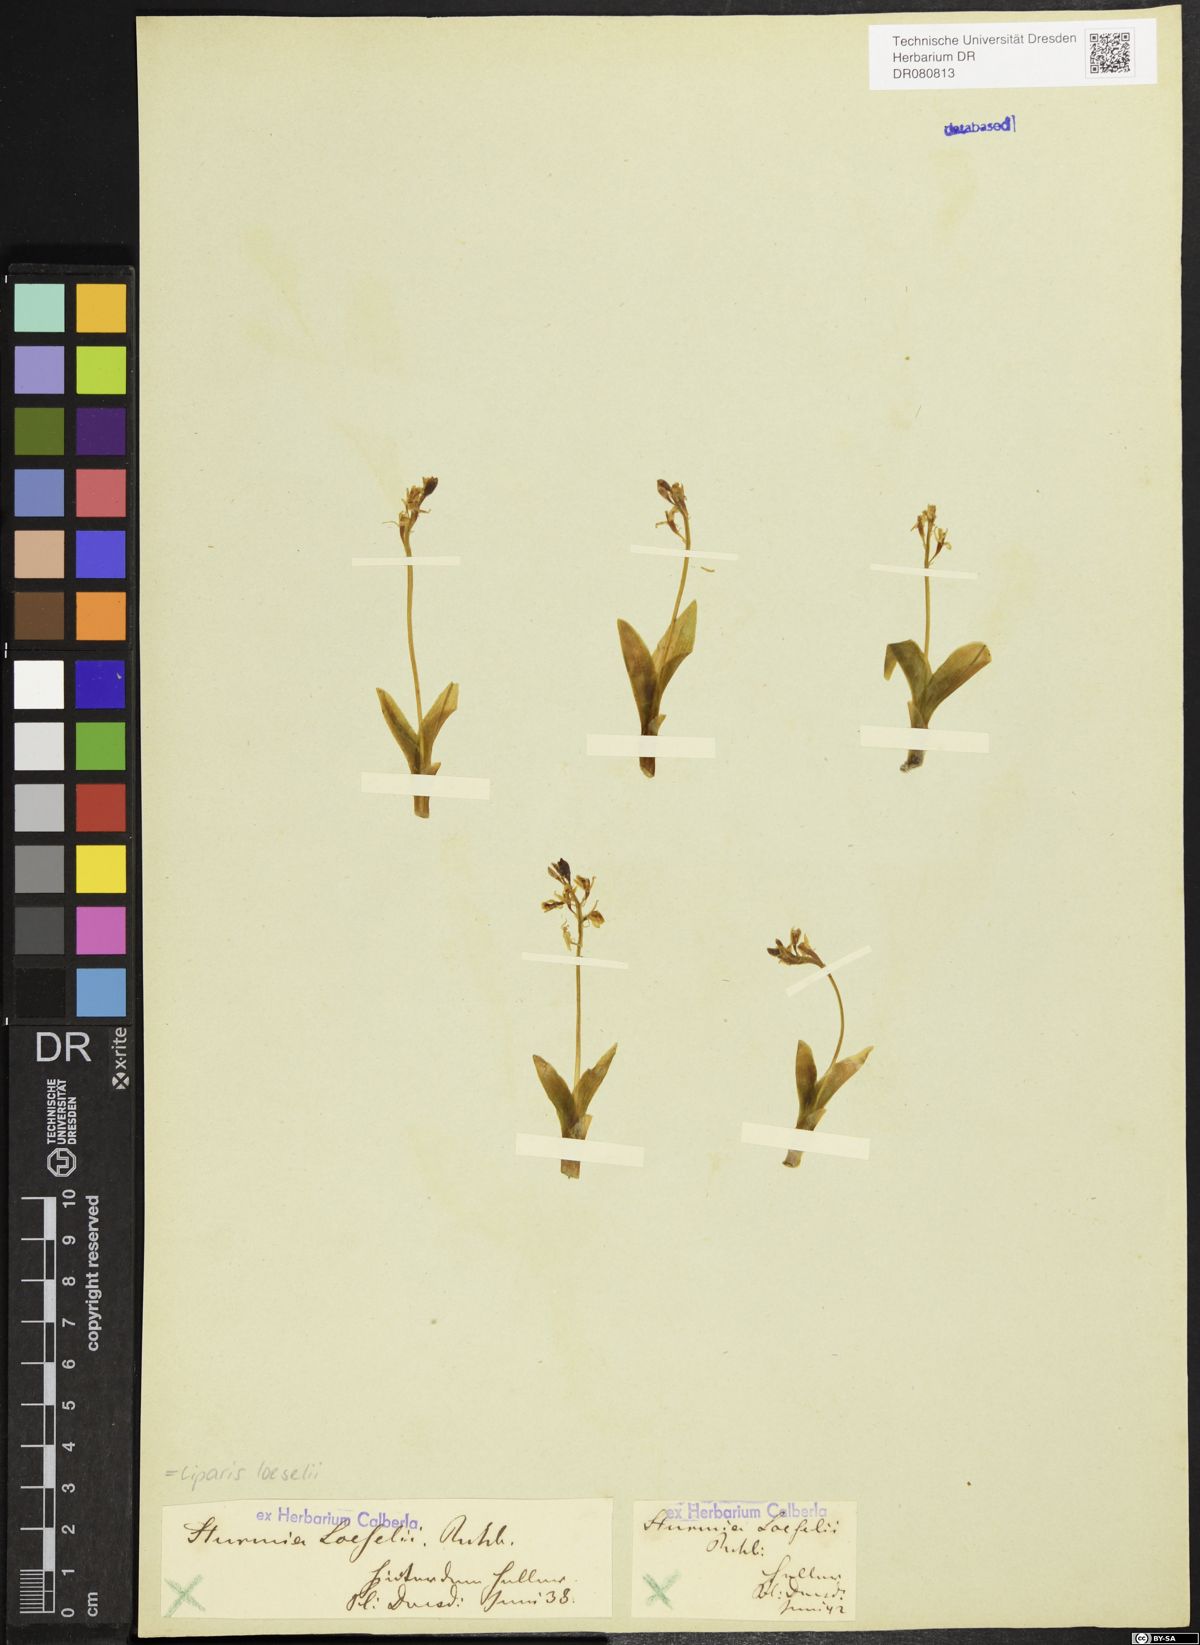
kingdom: Animalia
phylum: Arthropoda
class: Insecta
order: Coleoptera
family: Curculionidae
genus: Liparis
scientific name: Liparis loeselii
